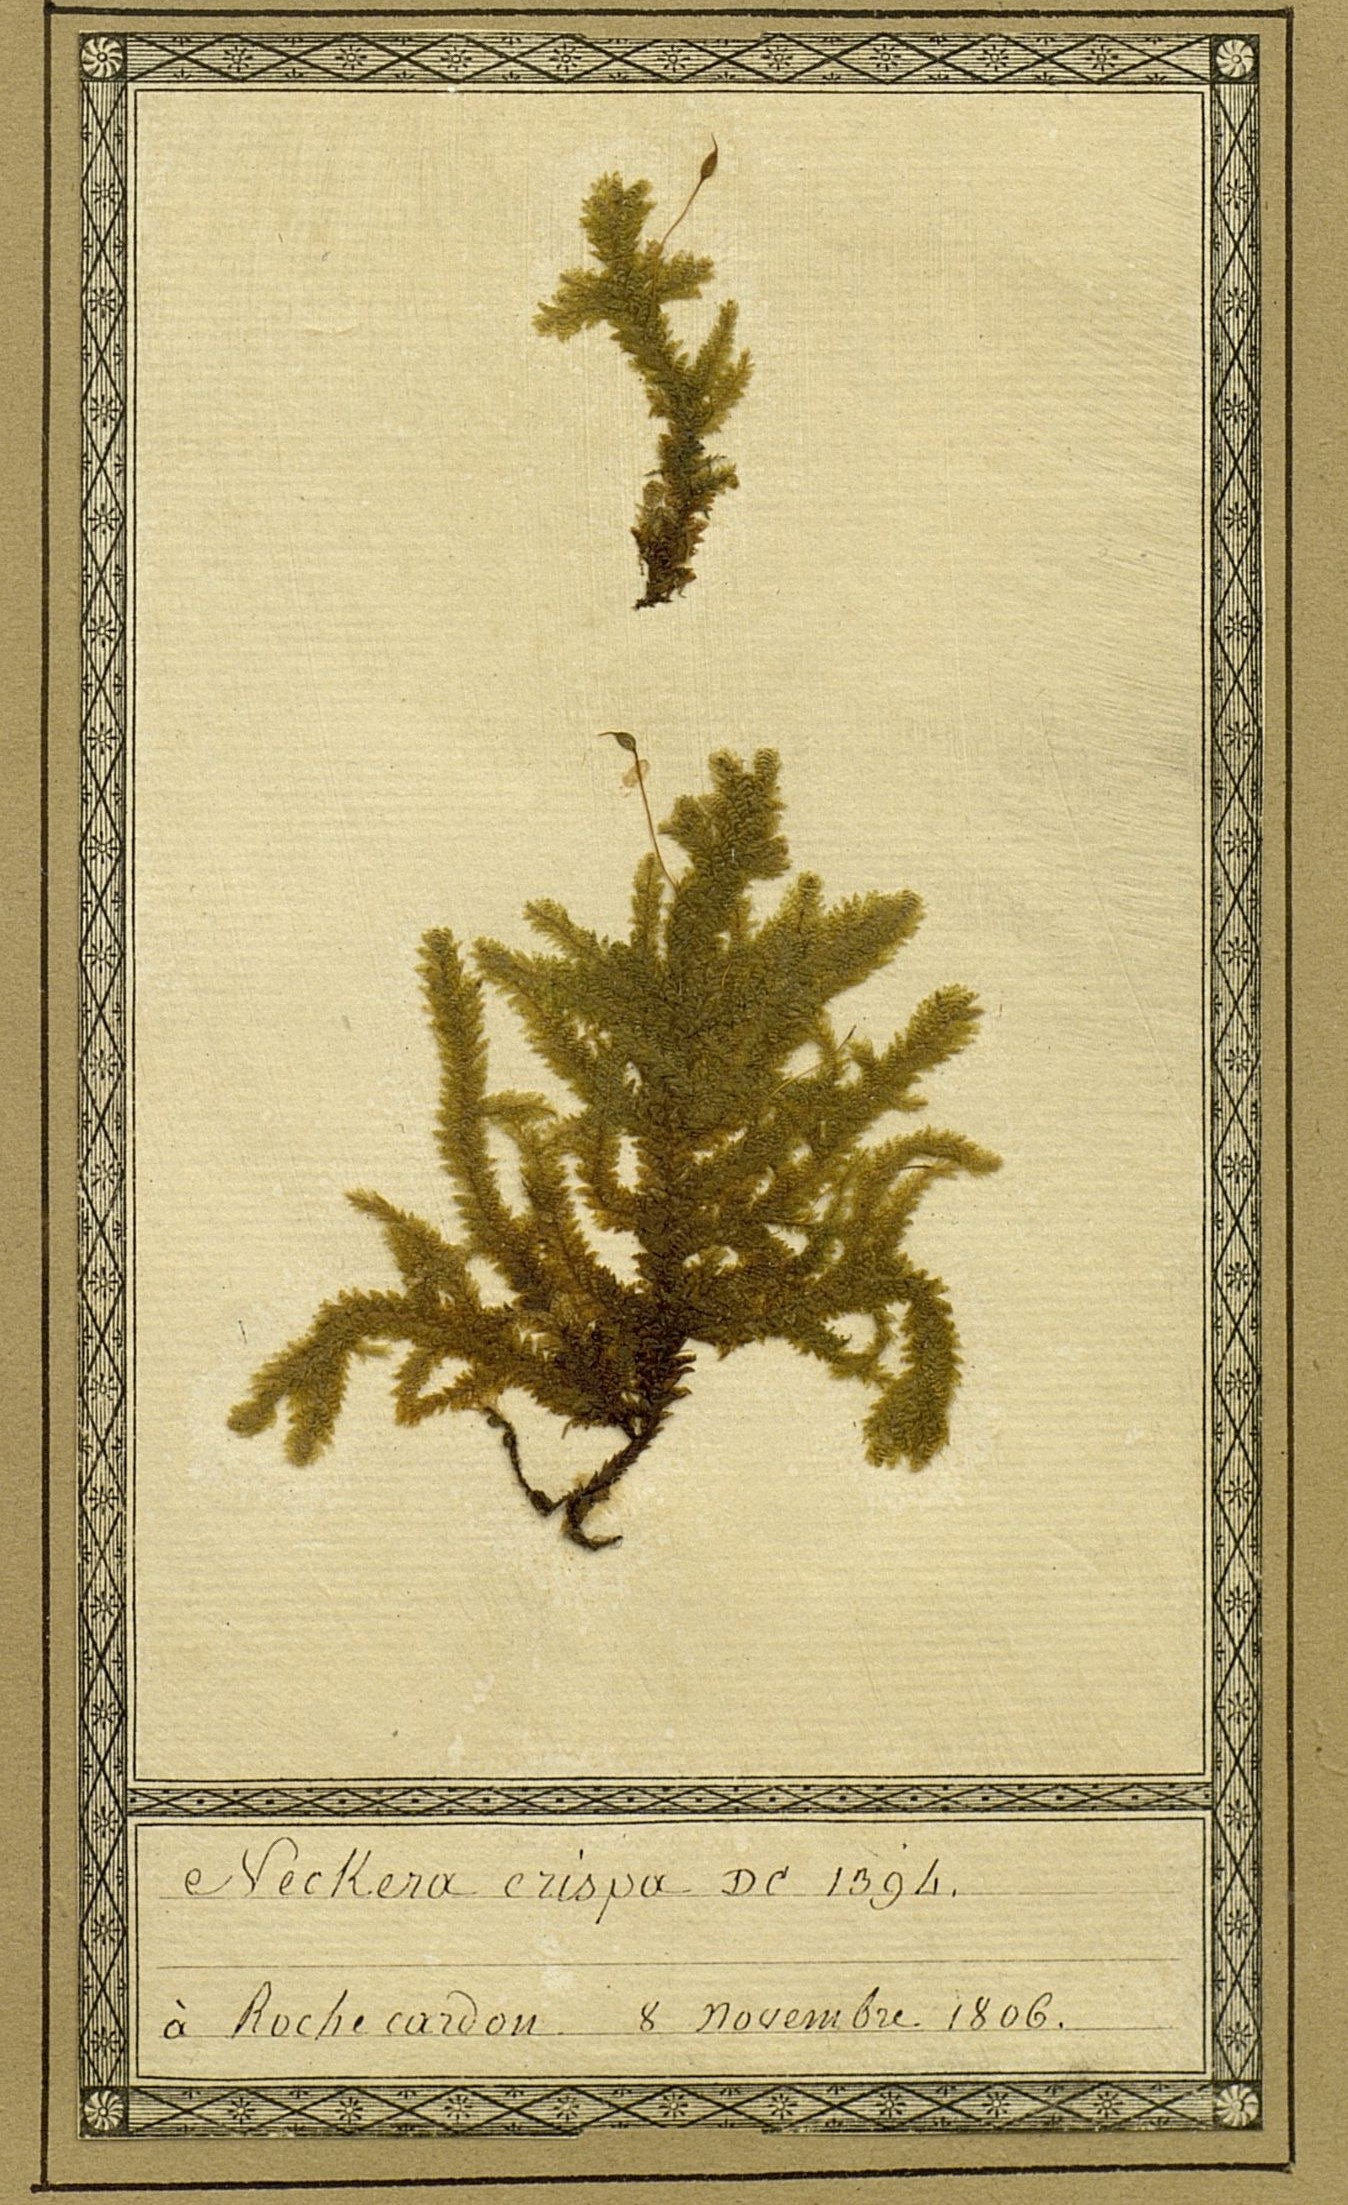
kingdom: Plantae
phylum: Bryophyta
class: Bryopsida
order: Hypnales
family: Neckeraceae
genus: Exsertotheca
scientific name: Exsertotheca crispa
